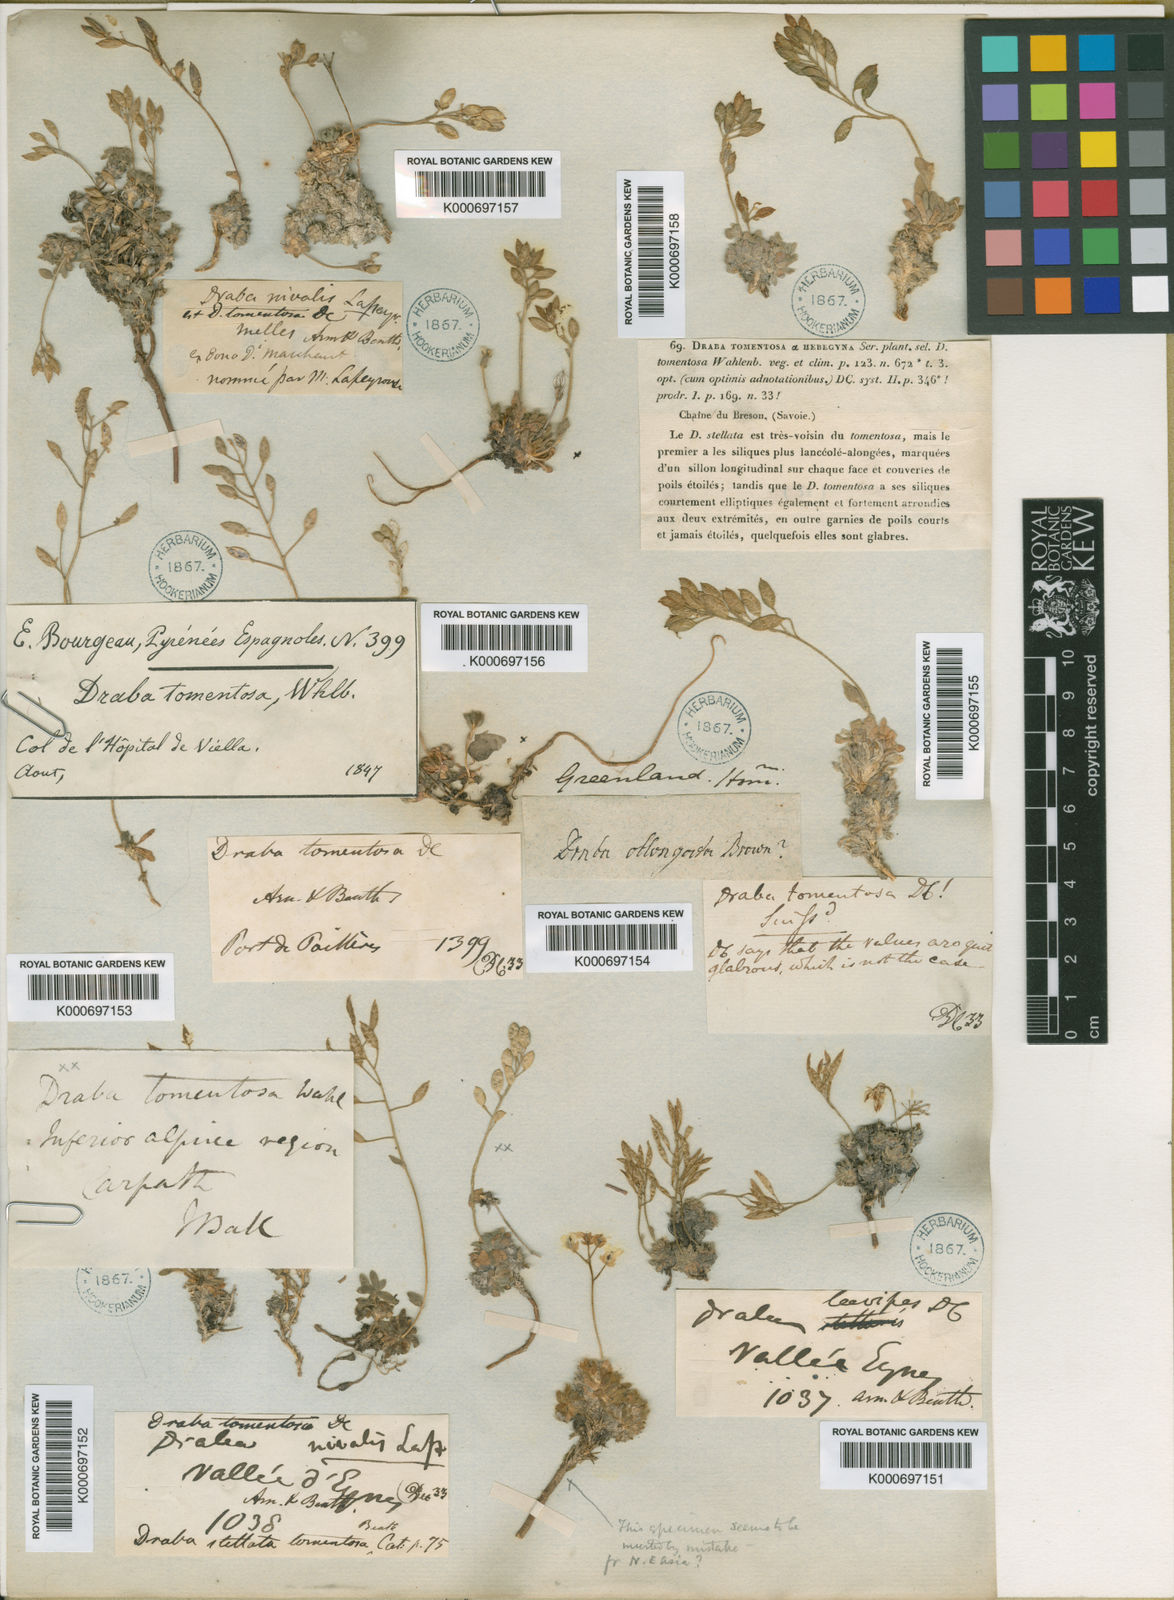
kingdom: Plantae
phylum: Tracheophyta
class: Magnoliopsida
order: Brassicales
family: Brassicaceae
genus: Draba
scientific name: Draba dubia
